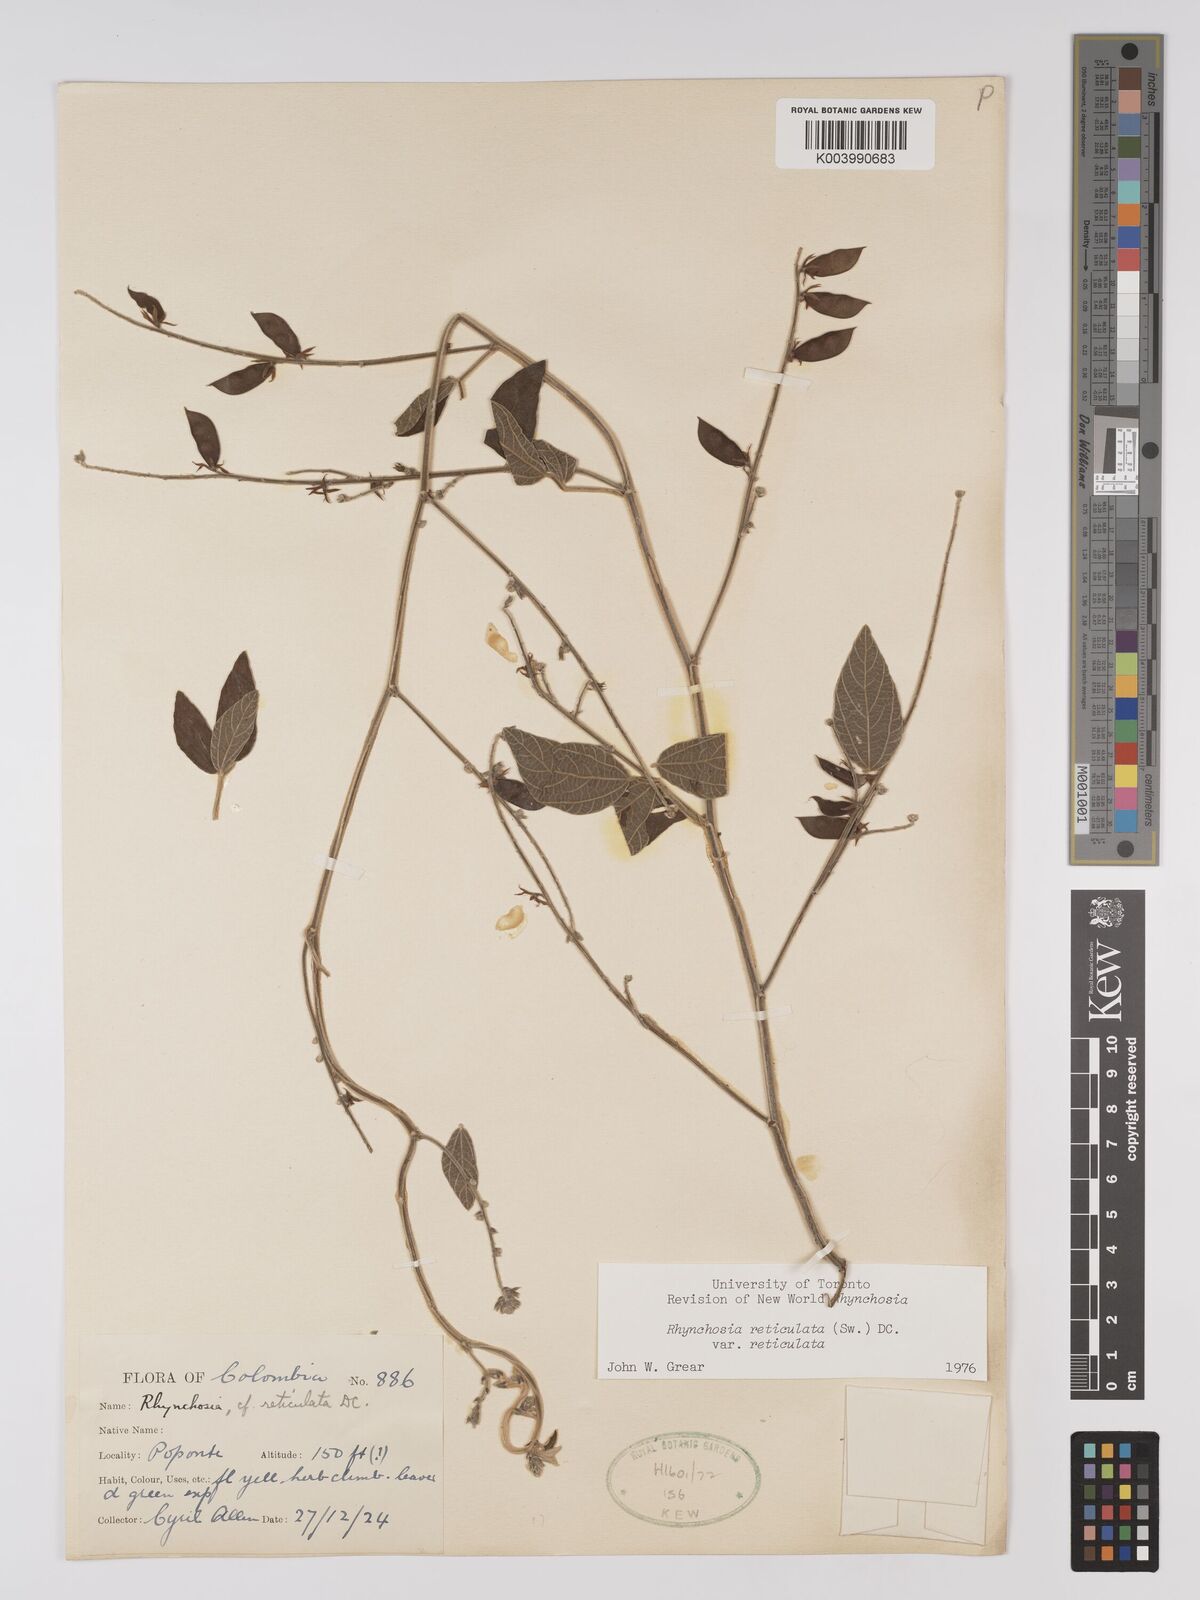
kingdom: Plantae
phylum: Tracheophyta
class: Magnoliopsida
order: Fabales
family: Fabaceae
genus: Rhynchosia
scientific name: Rhynchosia reticulata
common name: Pea withe
